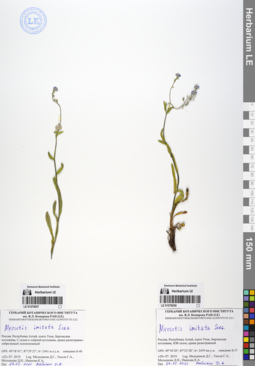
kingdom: Plantae
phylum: Tracheophyta
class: Magnoliopsida
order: Boraginales
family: Boraginaceae
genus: Myosotis
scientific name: Myosotis imitata
